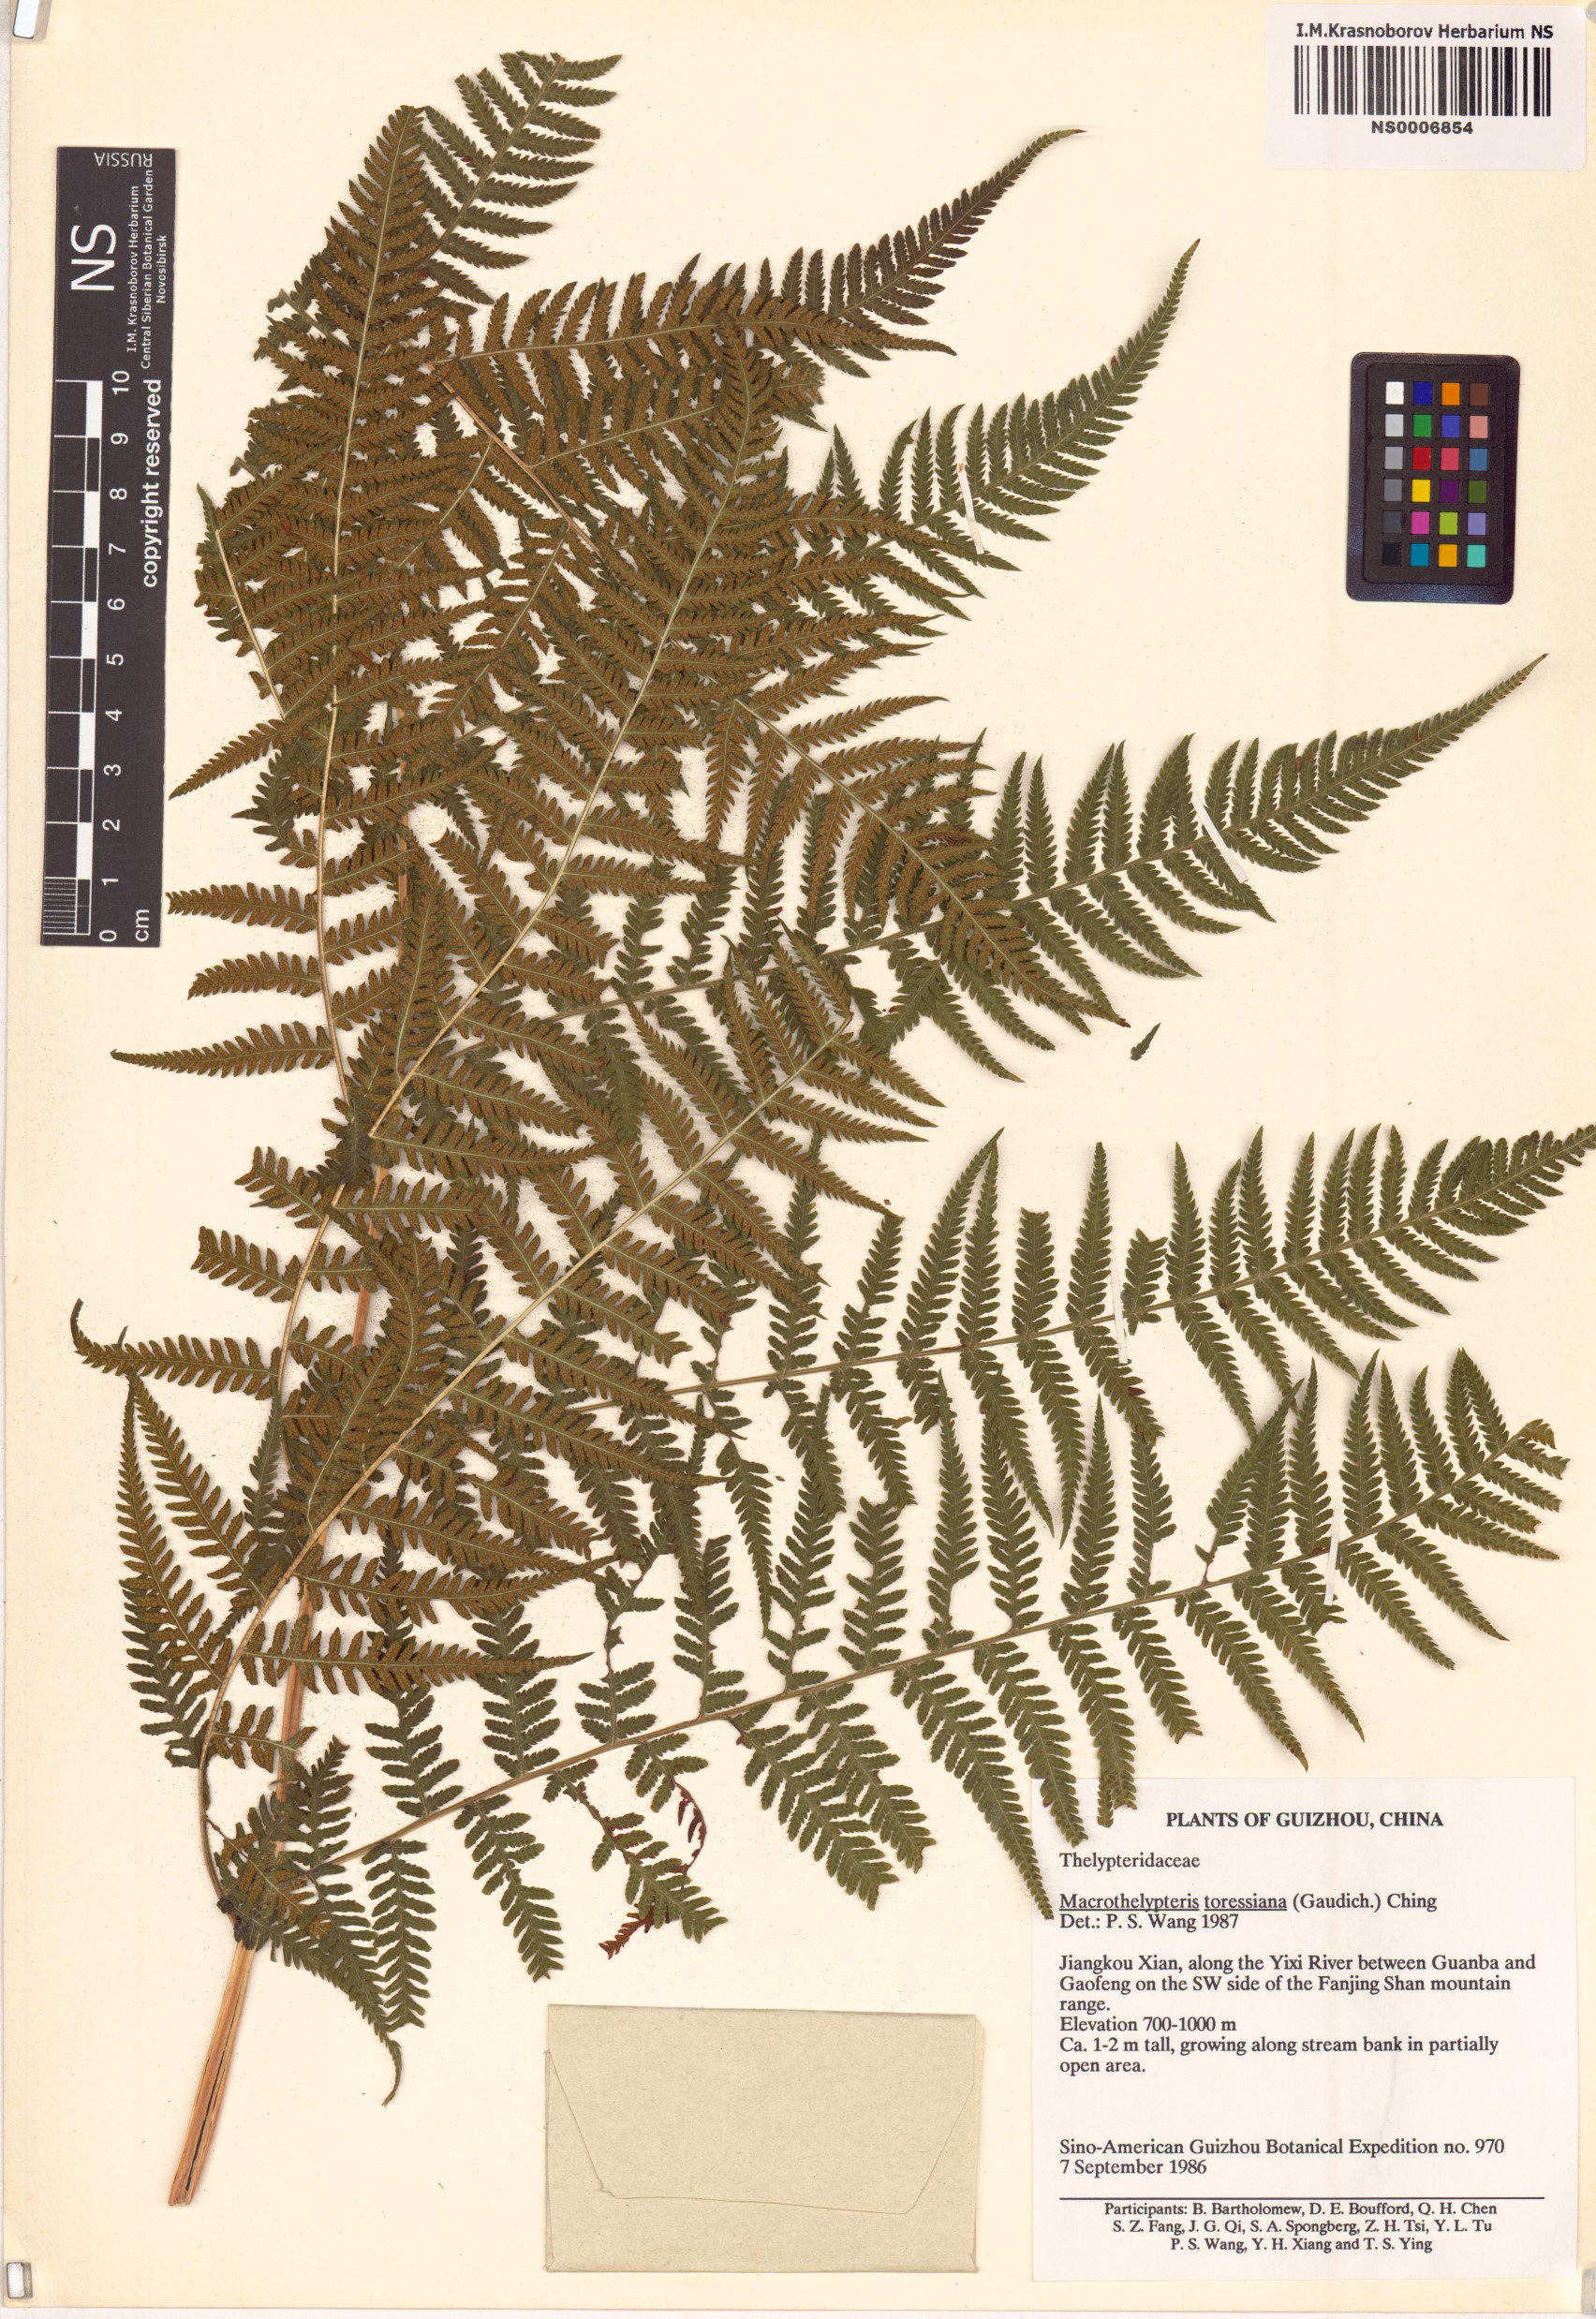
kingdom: Plantae
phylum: Tracheophyta
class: Polypodiopsida
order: Polypodiales
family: Thelypteridaceae
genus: Macrothelypteris
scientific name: Macrothelypteris torresiana
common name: Swordfern
